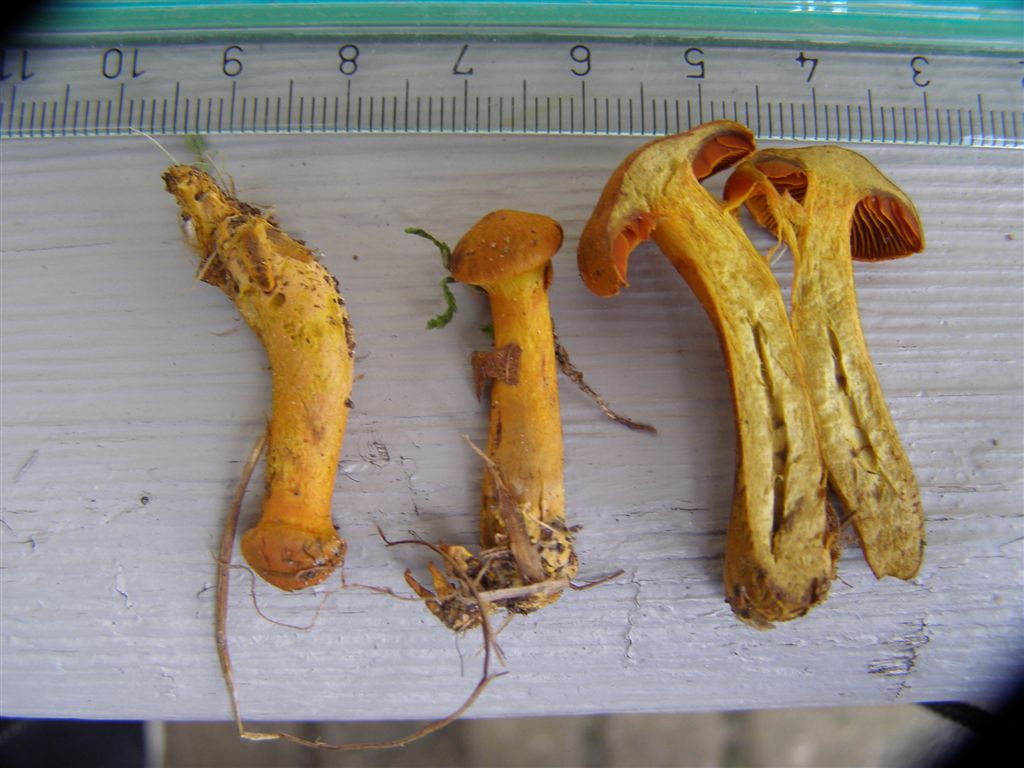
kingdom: Fungi
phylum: Basidiomycota
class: Agaricomycetes
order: Agaricales
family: Cortinariaceae
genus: Cortinarius
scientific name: Cortinarius malicorius
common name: grønkødet slørhat
